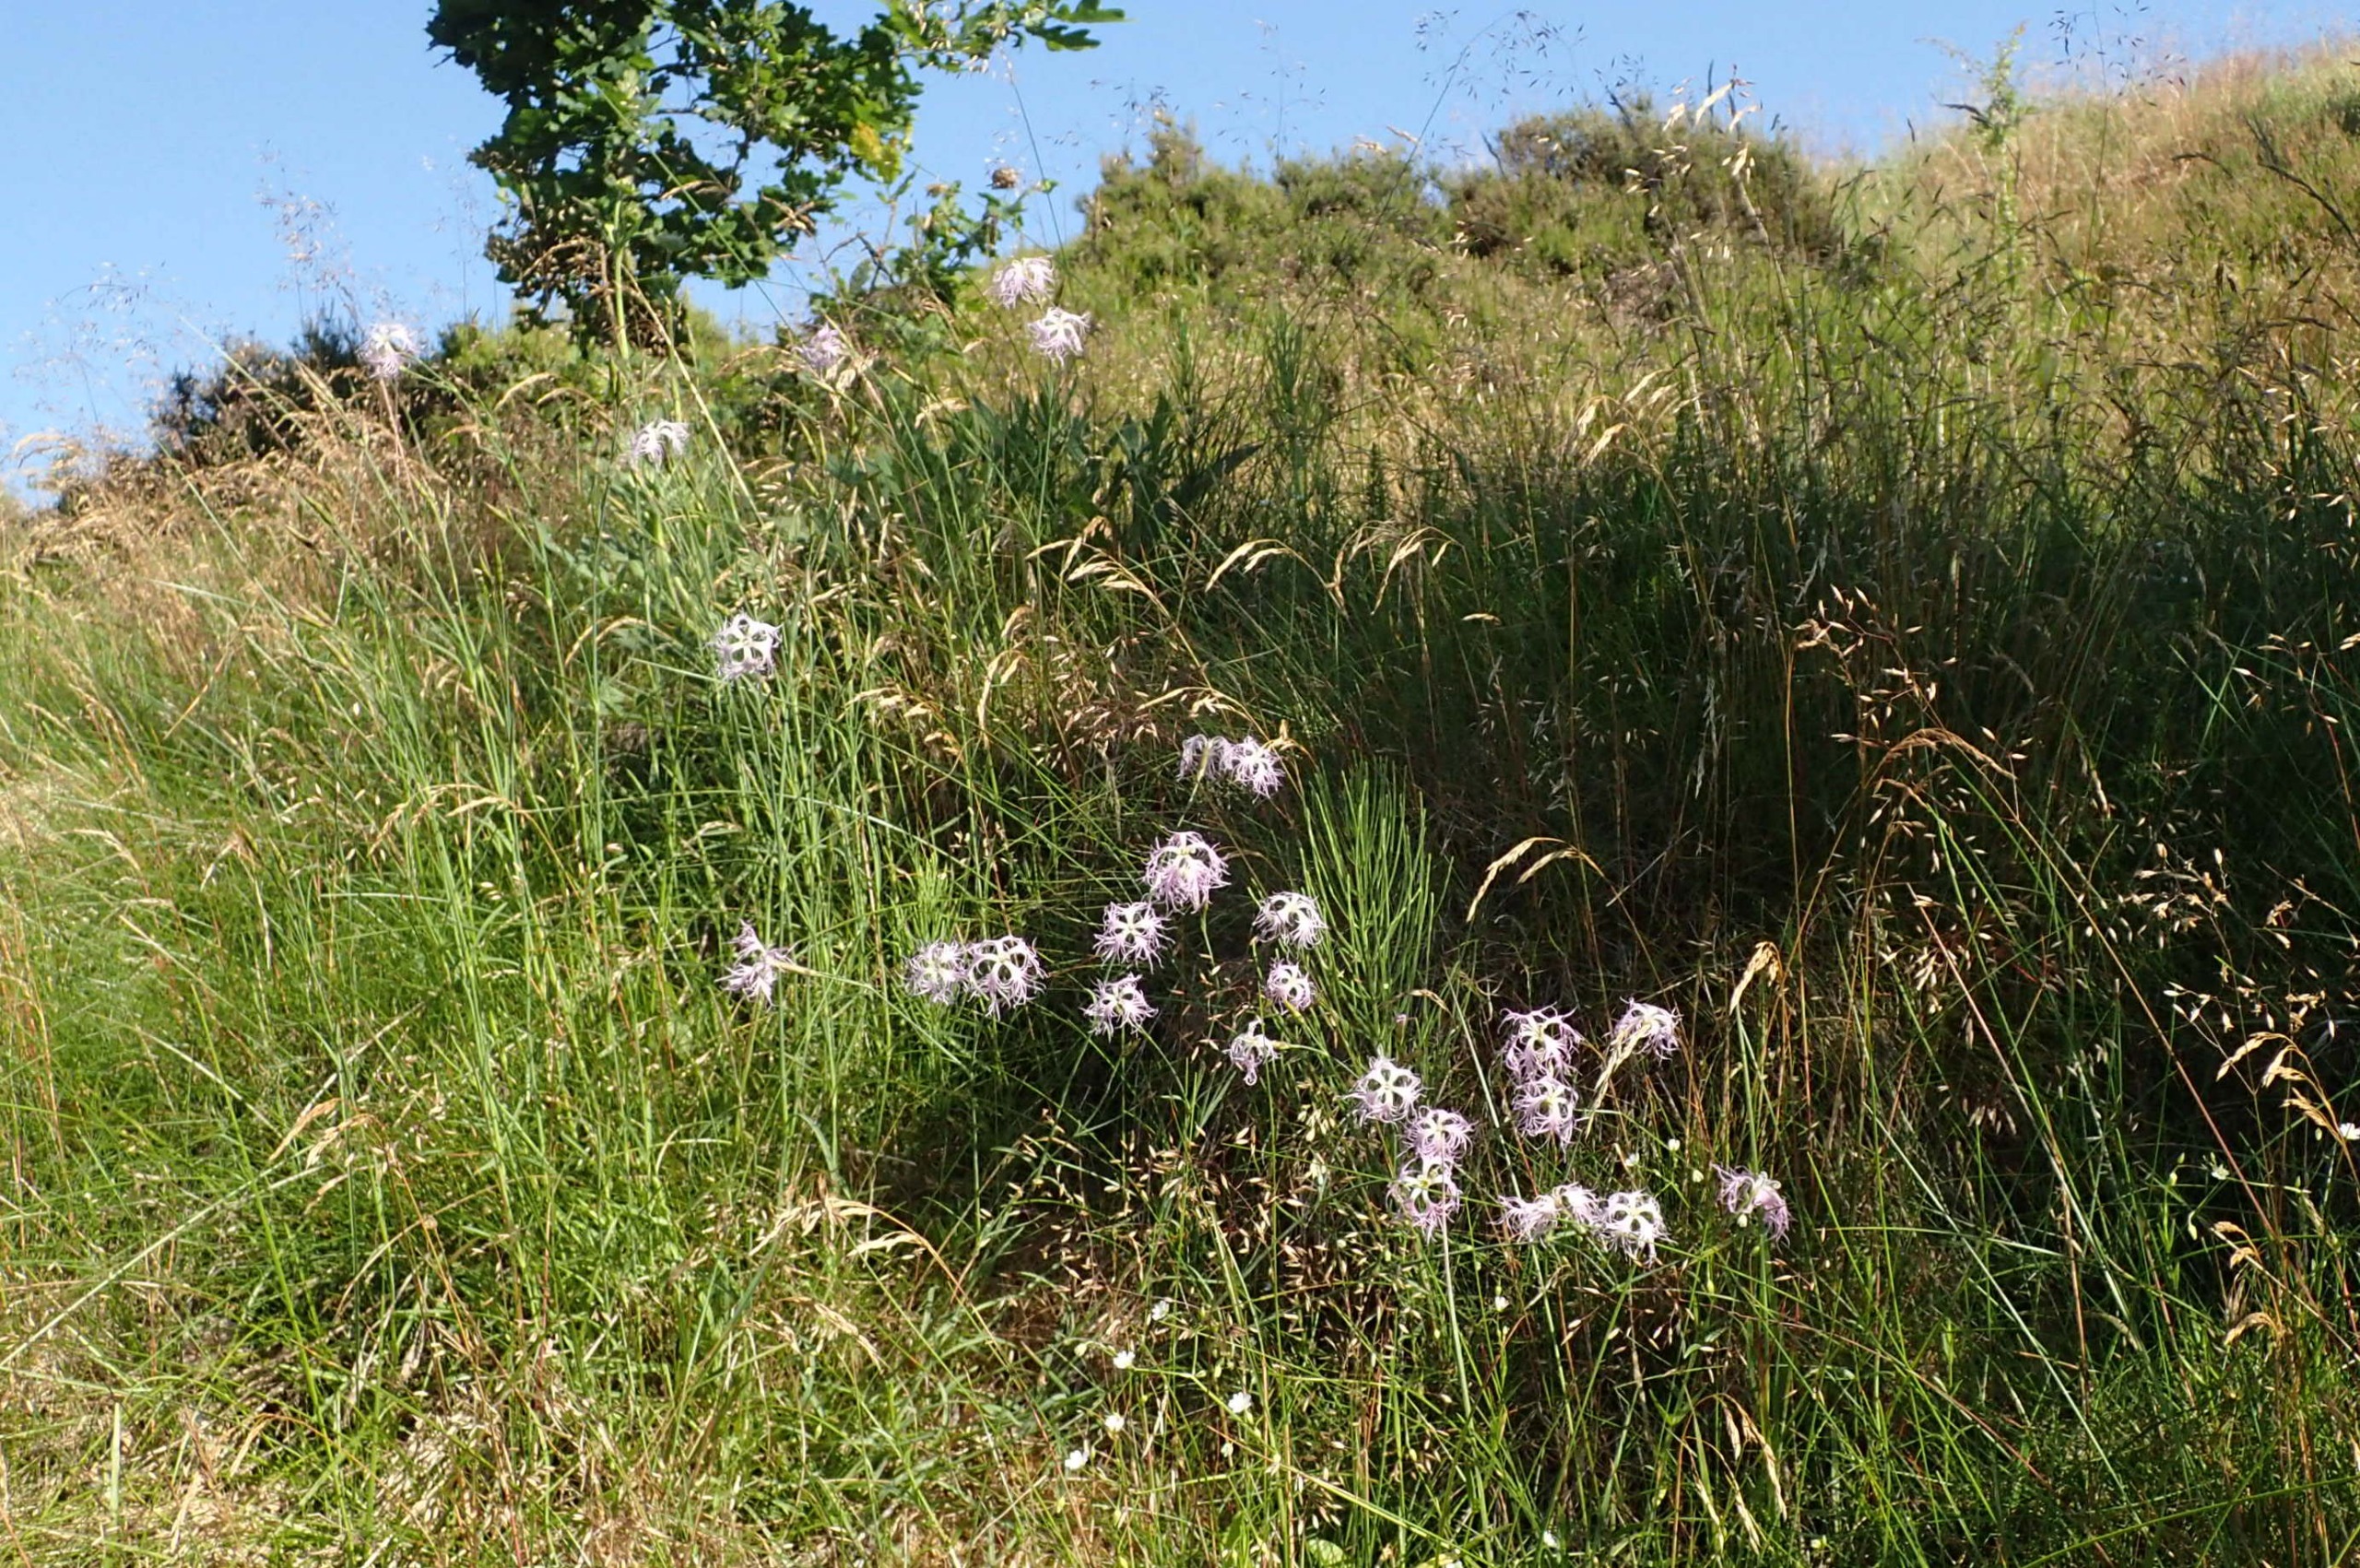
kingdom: Plantae
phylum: Tracheophyta
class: Magnoliopsida
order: Caryophyllales
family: Caryophyllaceae
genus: Dianthus
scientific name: Dianthus superbus
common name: Strand-nellike
